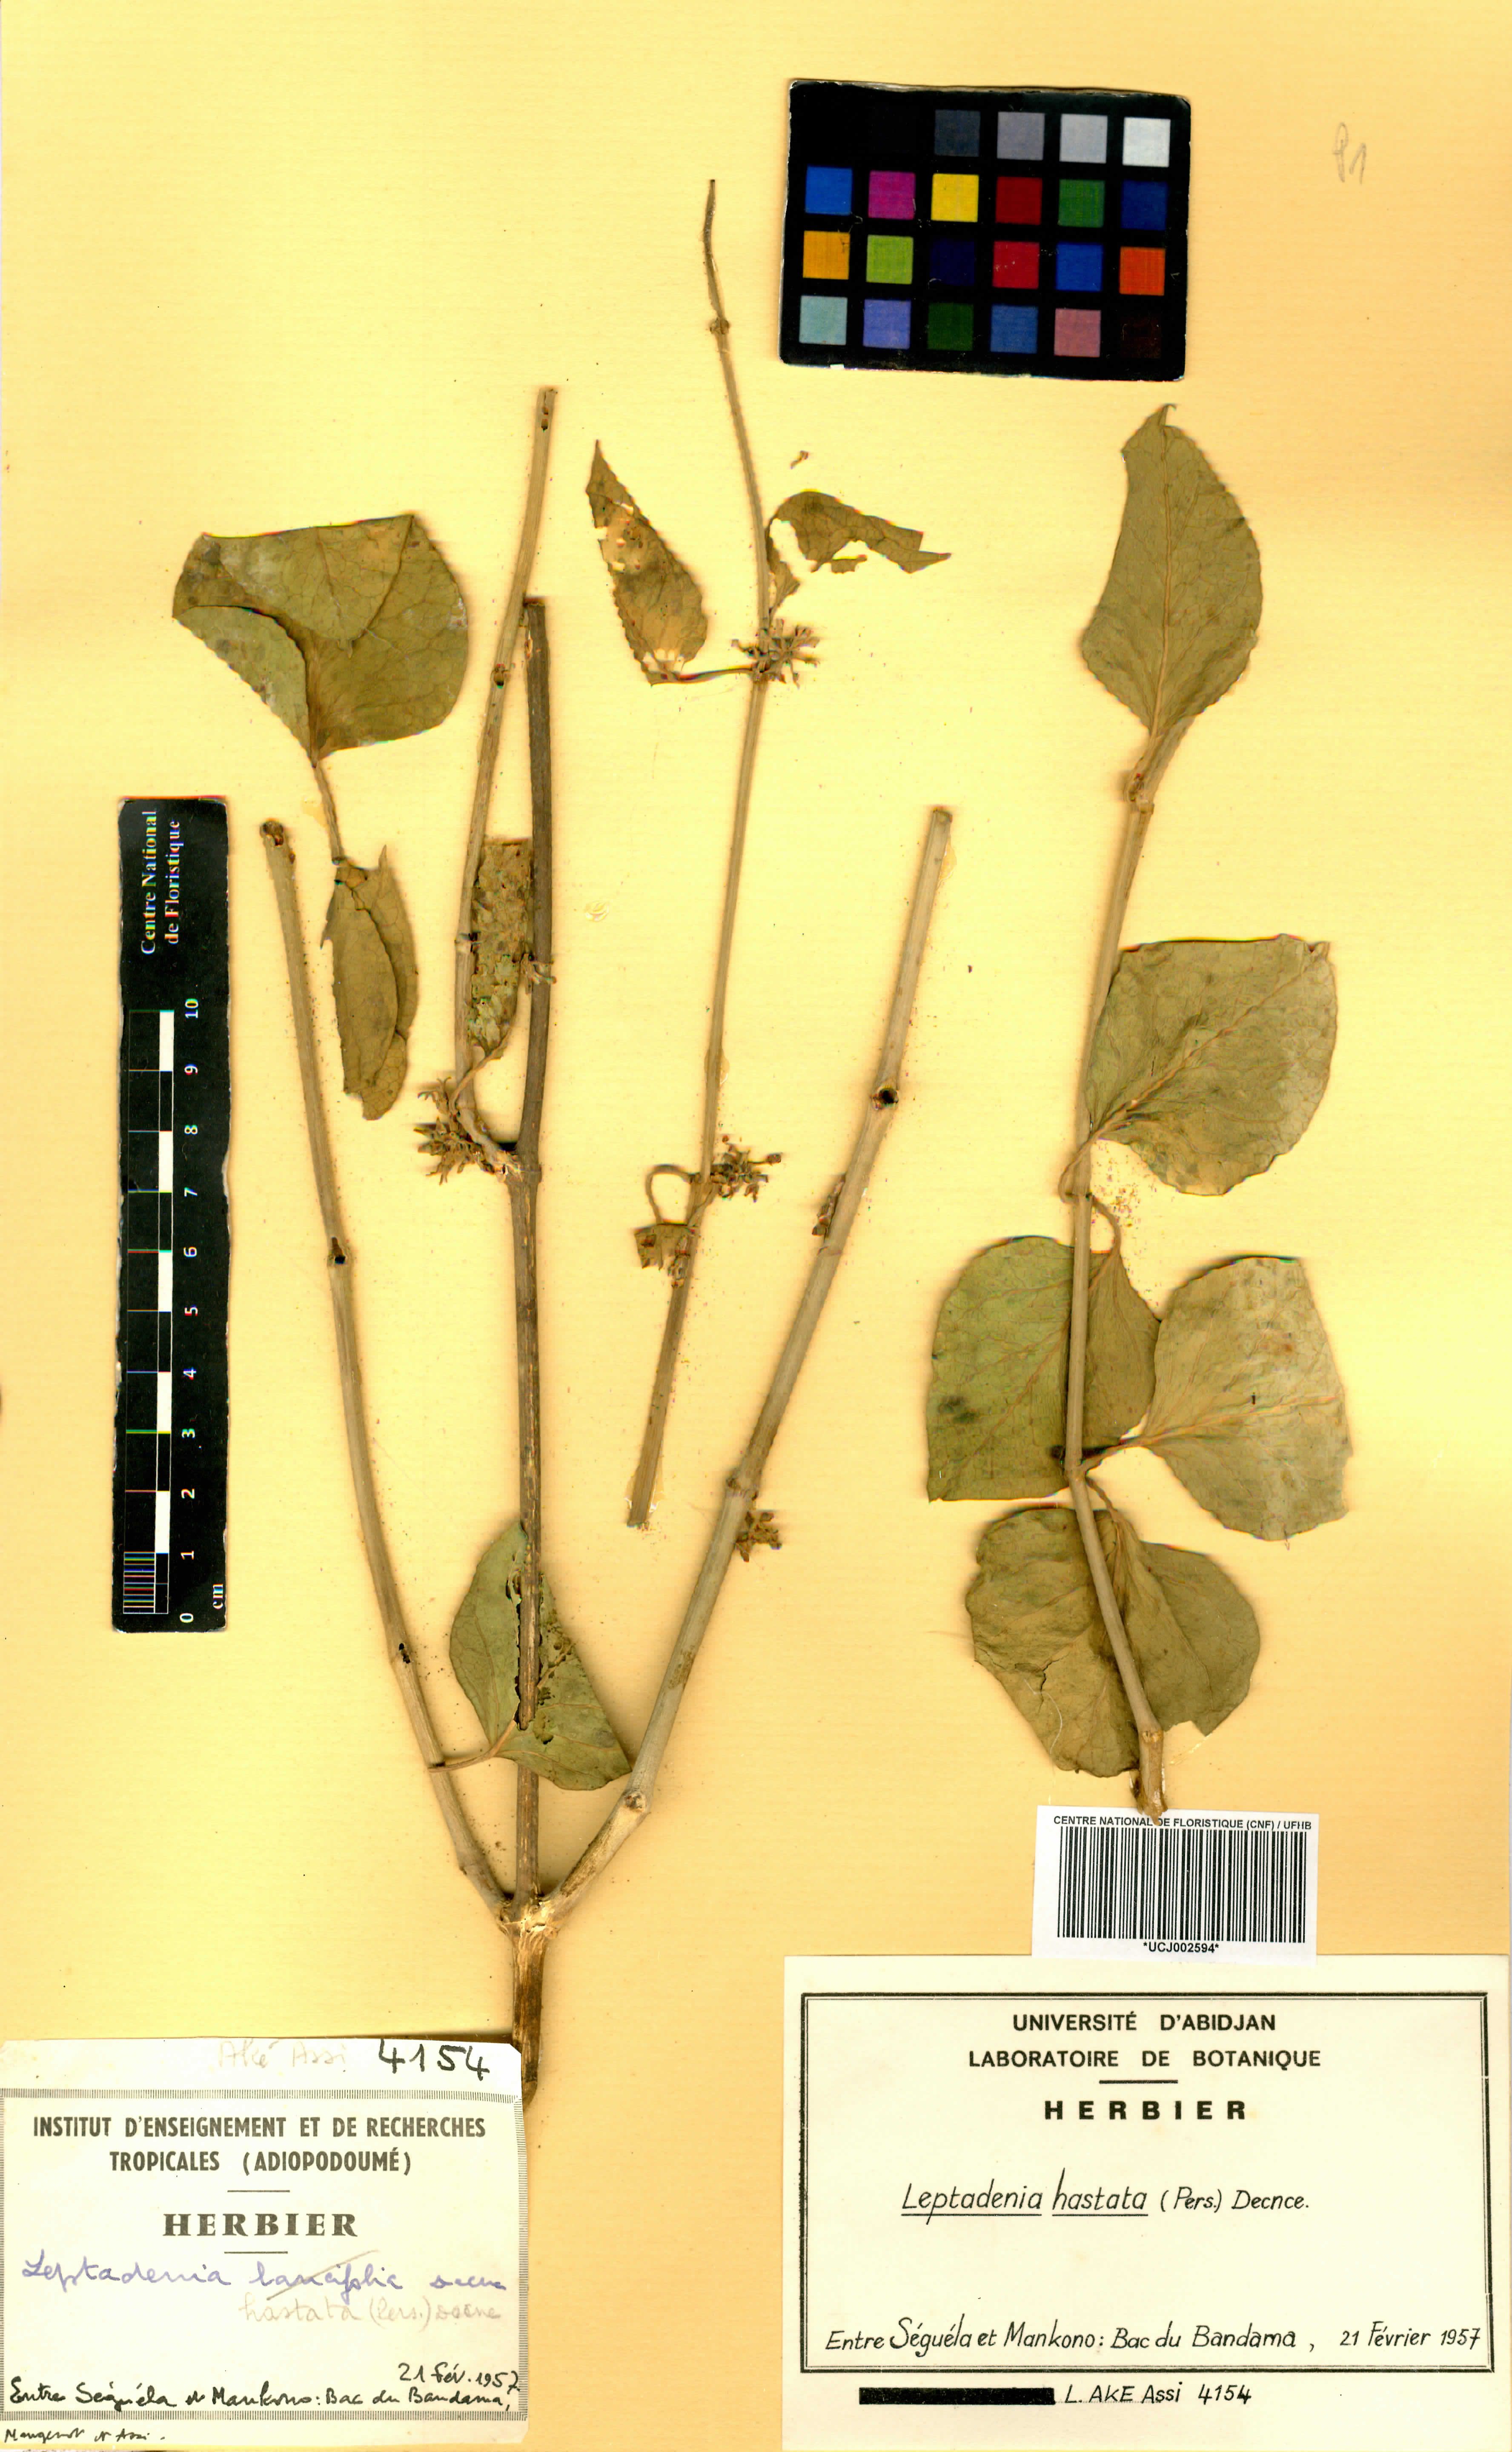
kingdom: Plantae
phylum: Tracheophyta
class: Magnoliopsida
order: Gentianales
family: Apocynaceae
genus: Leptadenia
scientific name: Leptadenia lanceolata
